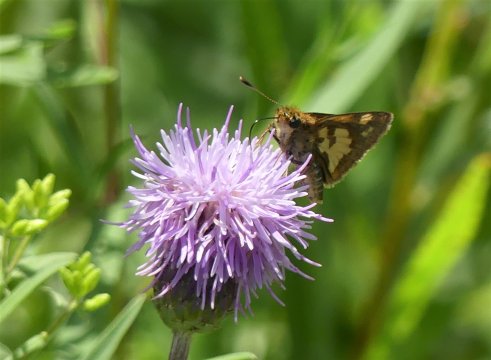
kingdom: Animalia
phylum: Arthropoda
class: Insecta
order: Lepidoptera
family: Hesperiidae
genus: Polites
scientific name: Polites coras
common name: Peck's Skipper
